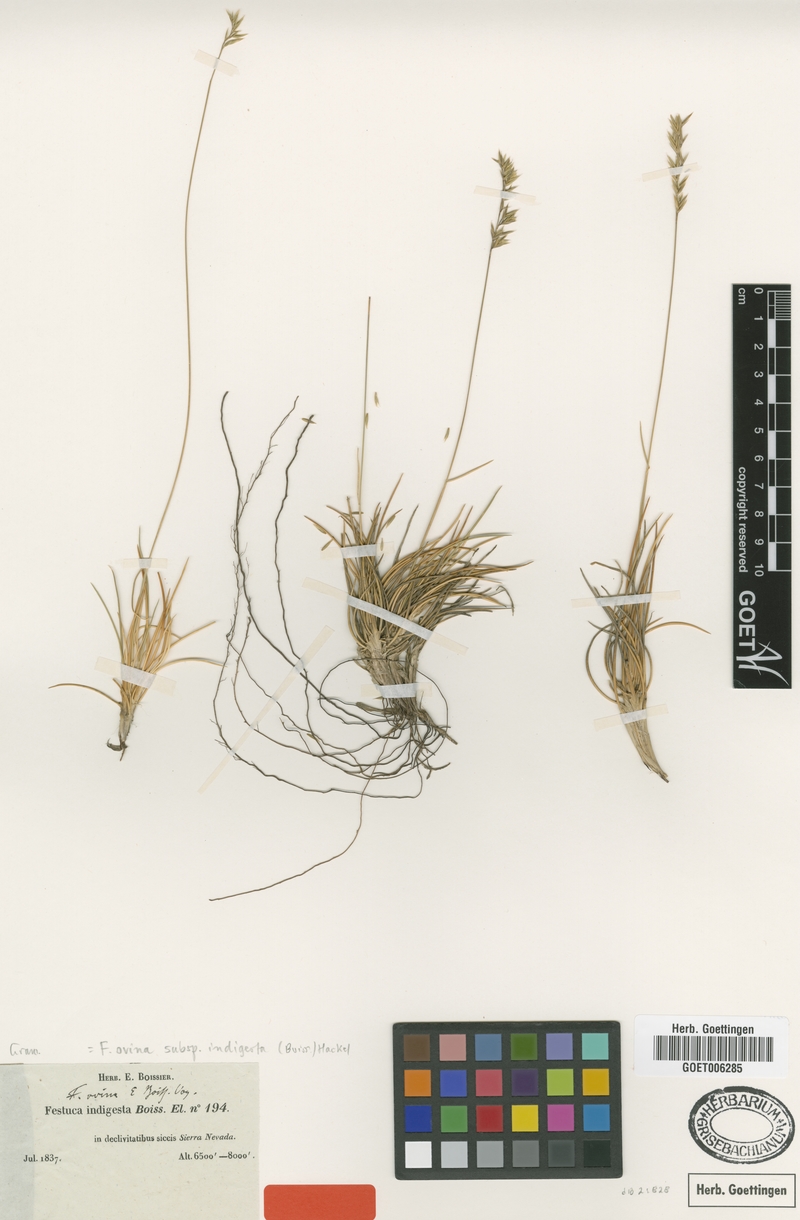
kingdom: Plantae
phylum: Tracheophyta
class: Liliopsida
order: Poales
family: Poaceae
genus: Festuca
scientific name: Festuca indigesta
